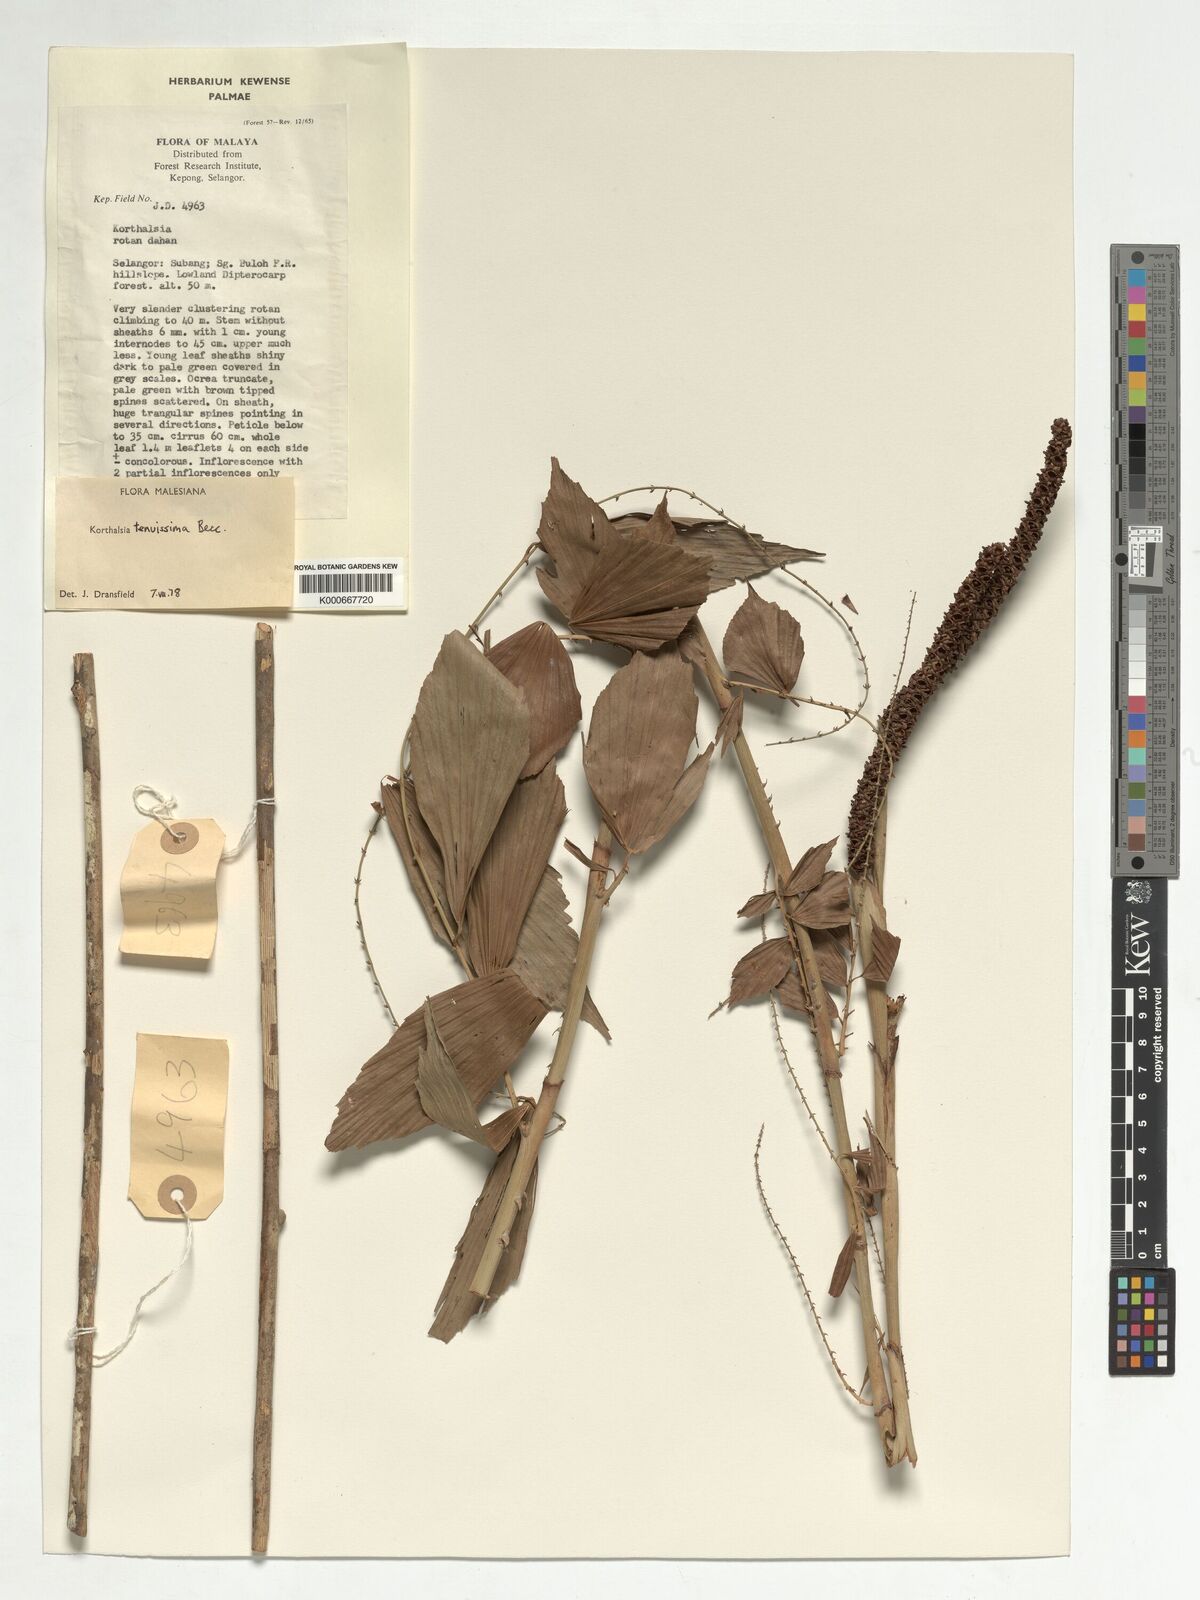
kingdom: Plantae
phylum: Tracheophyta
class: Liliopsida
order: Arecales
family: Arecaceae
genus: Korthalsia
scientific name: Korthalsia tenuissima
